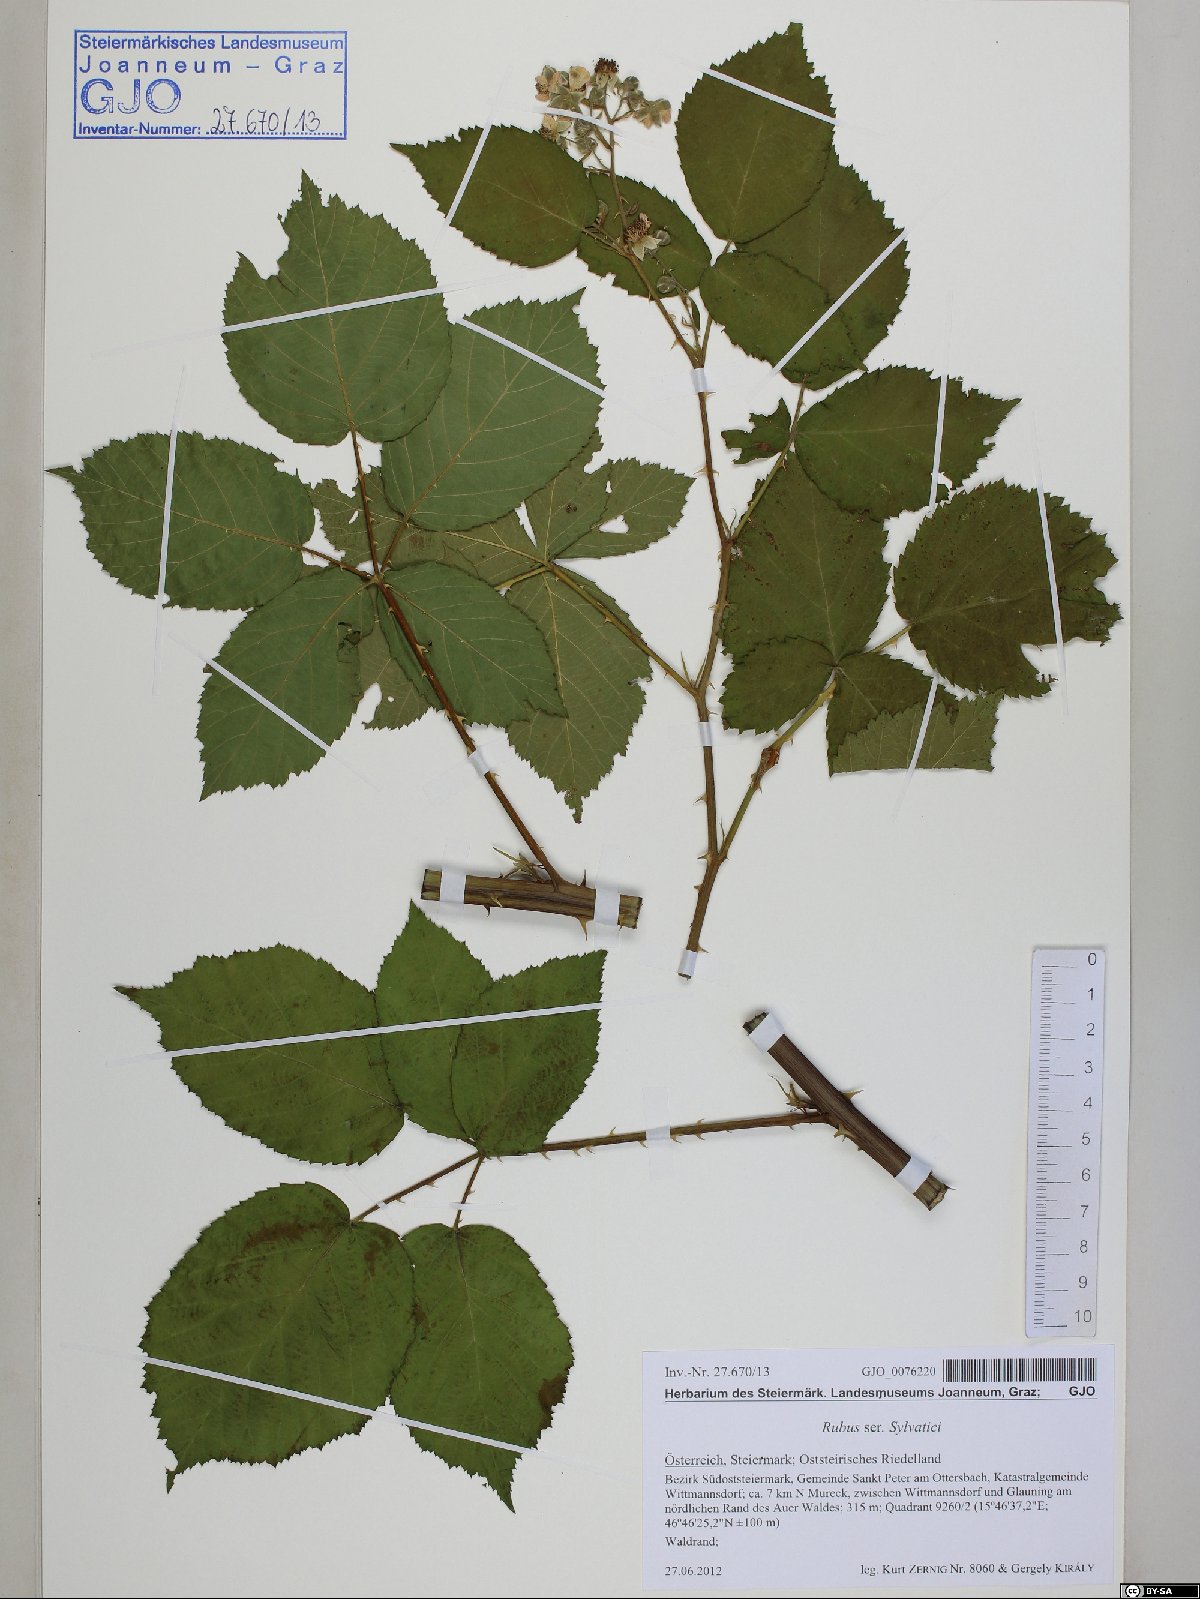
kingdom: Plantae
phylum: Tracheophyta
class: Magnoliopsida
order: Rosales
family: Rosaceae
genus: Rubus
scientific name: Rubus
